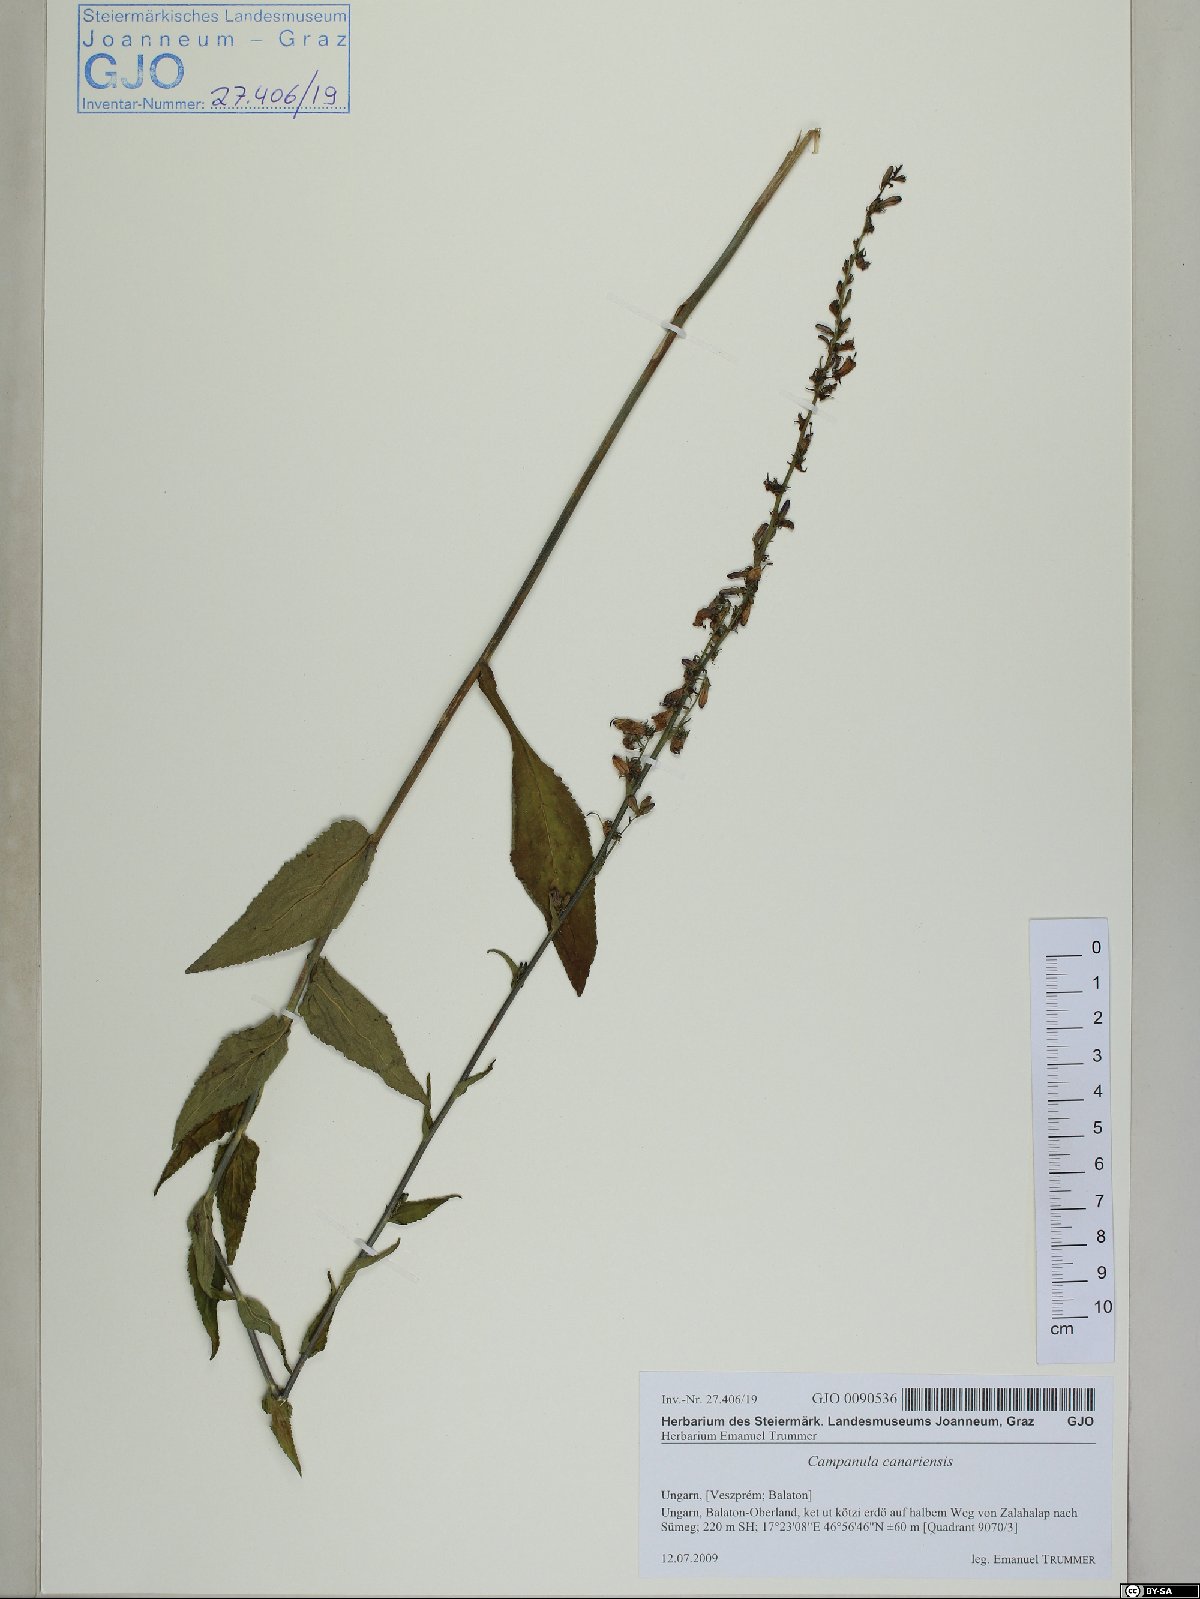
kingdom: Plantae
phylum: Tracheophyta
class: Magnoliopsida
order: Asterales
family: Campanulaceae
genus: Campanula
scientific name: Campanula bononiensis
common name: Pale bellflower
